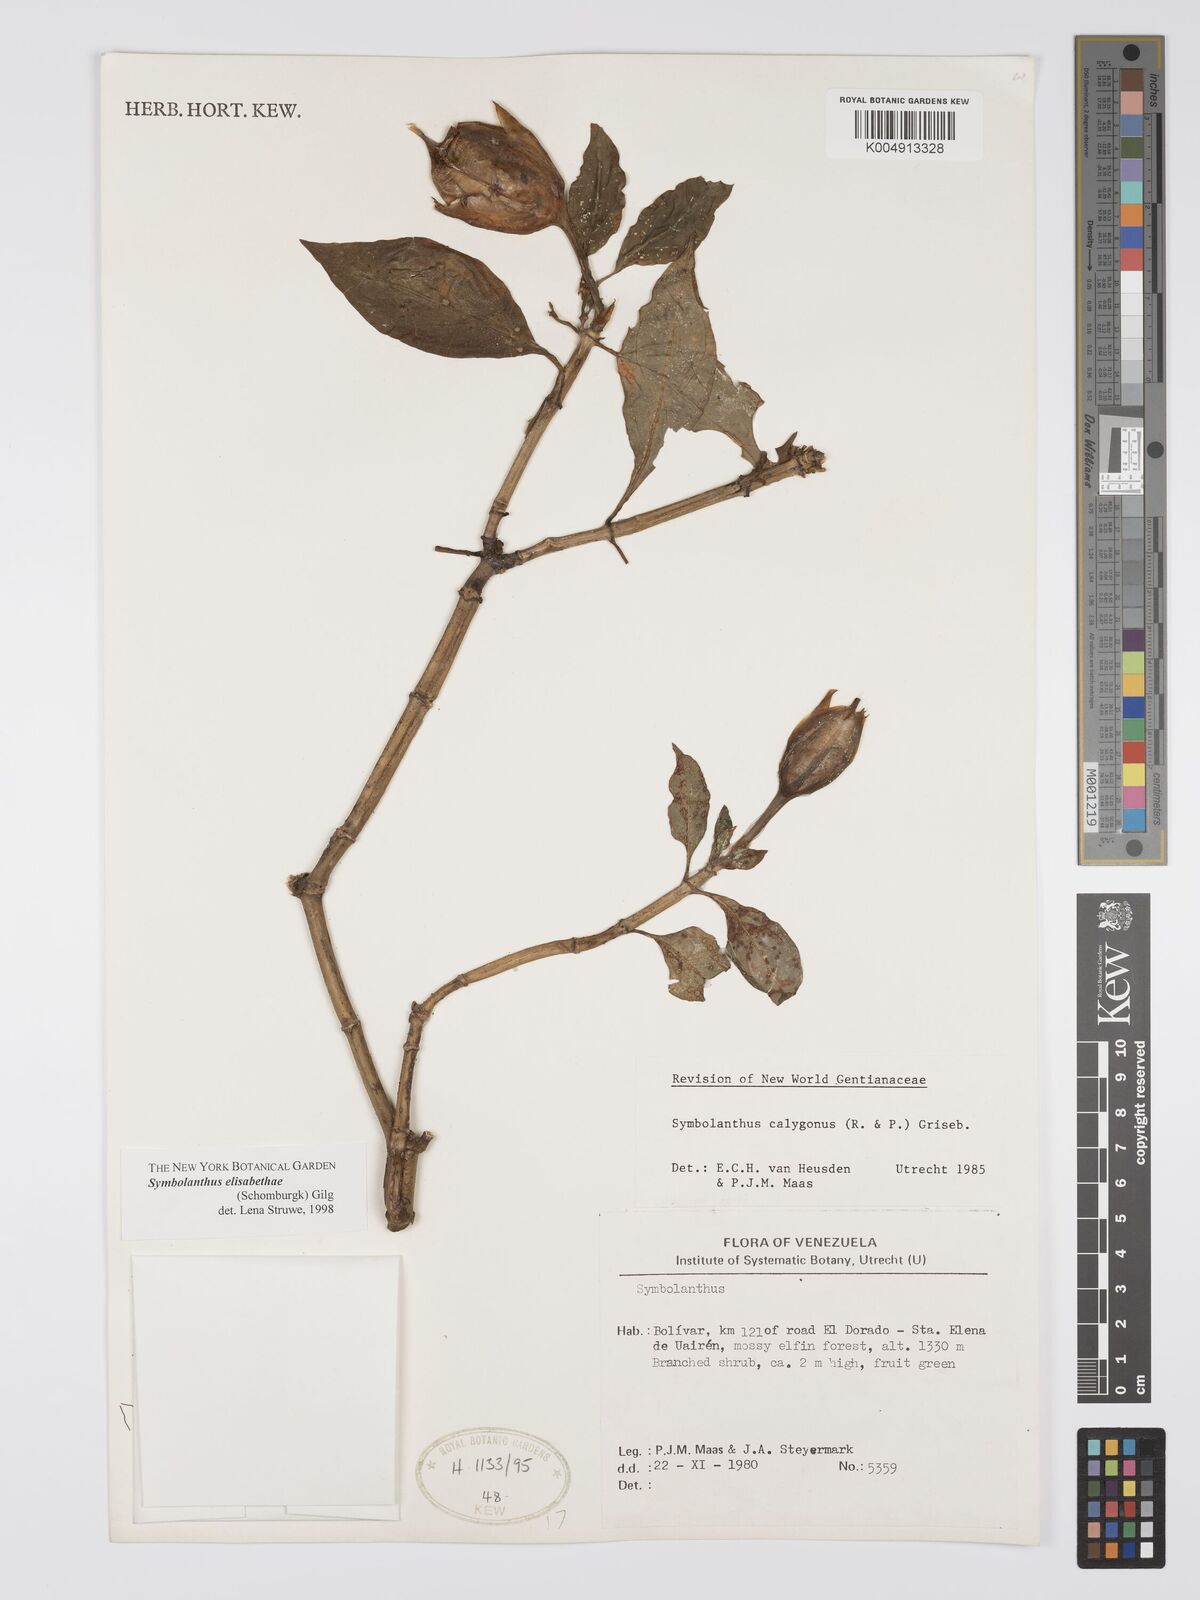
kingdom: Plantae
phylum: Tracheophyta
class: Magnoliopsida
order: Gentianales
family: Gentianaceae
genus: Symbolanthus
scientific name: Symbolanthus elisabethae
